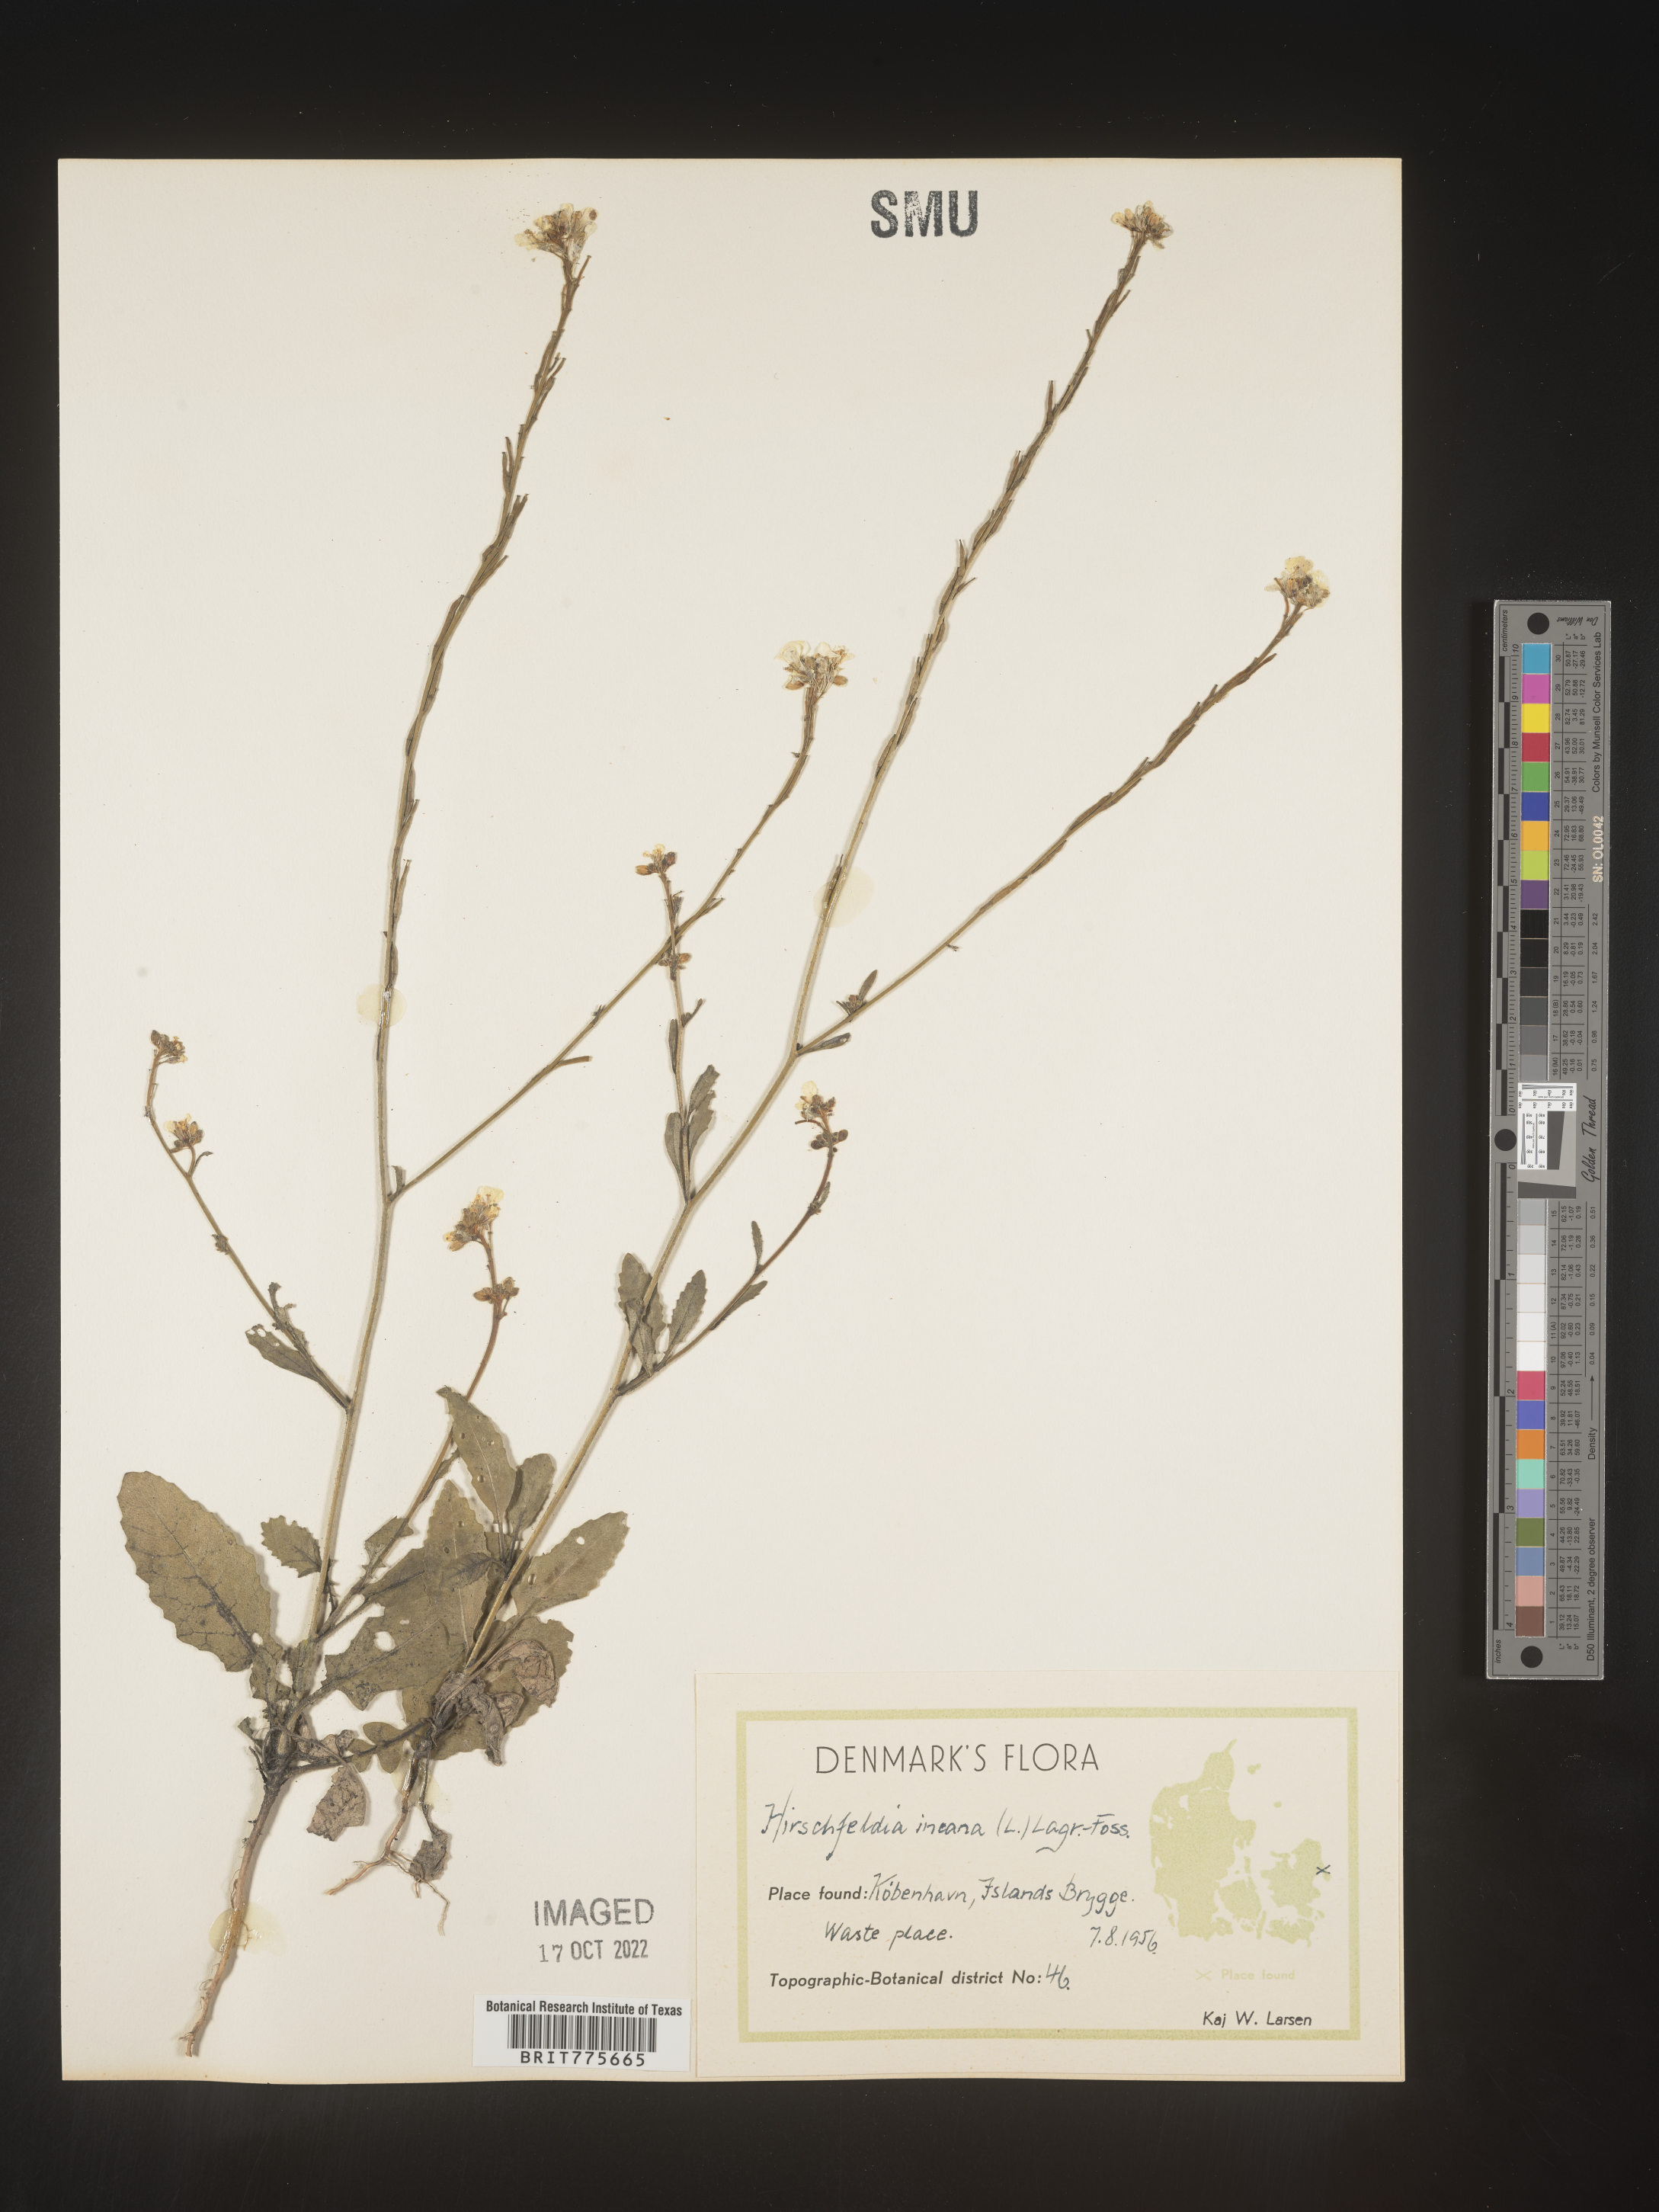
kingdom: Plantae
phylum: Tracheophyta
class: Magnoliopsida
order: Brassicales
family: Brassicaceae
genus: Hirschfeldia
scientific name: Hirschfeldia
